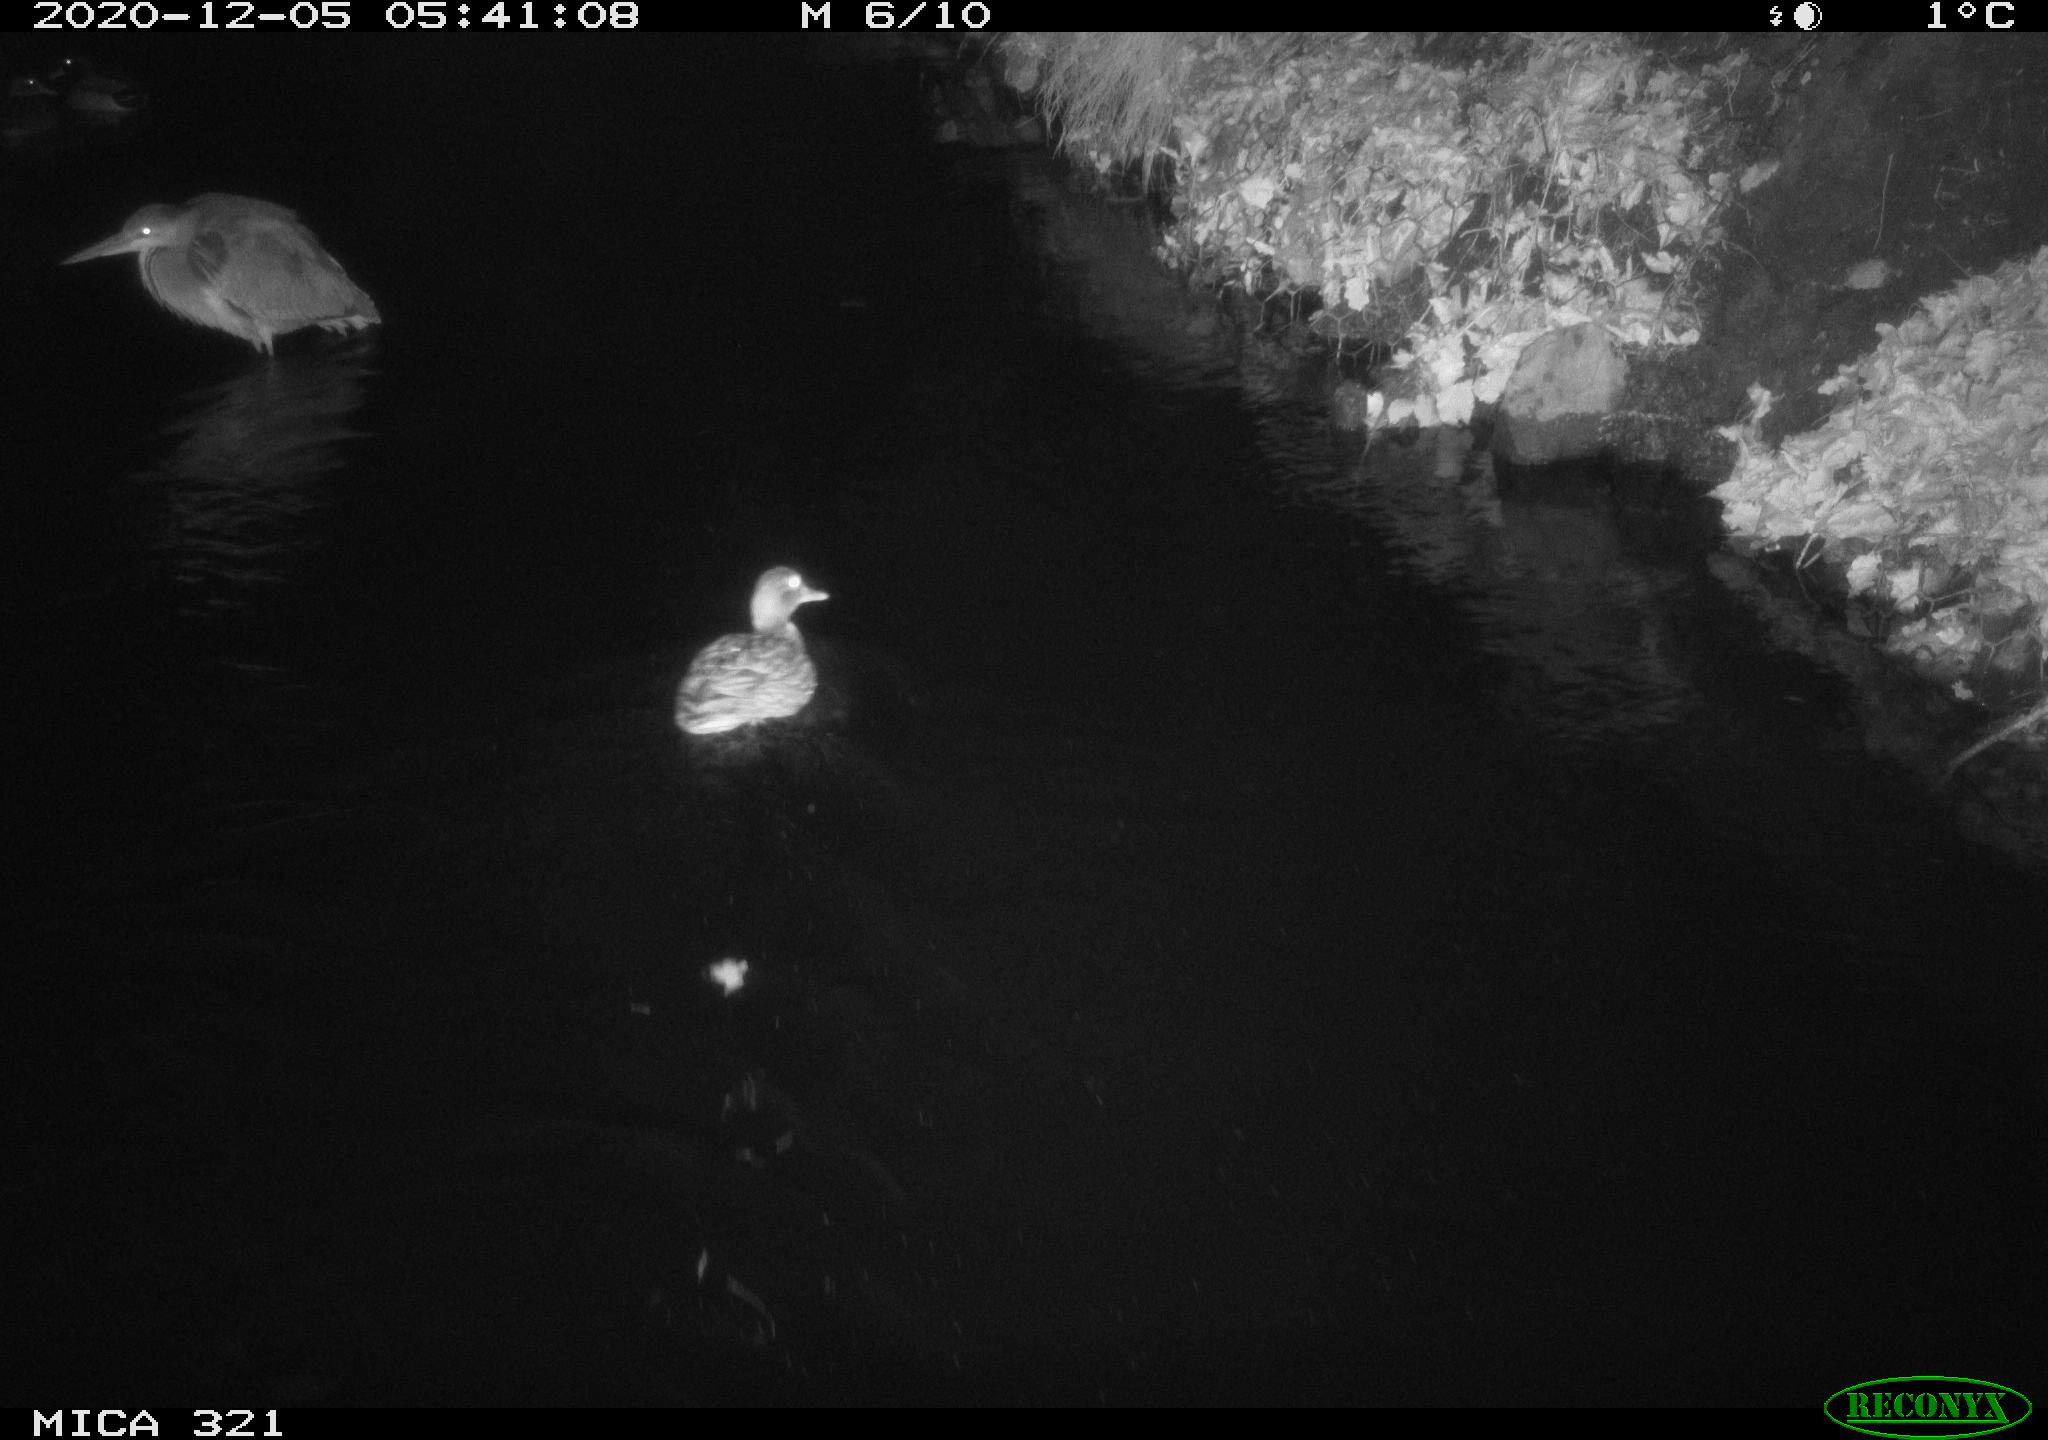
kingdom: Animalia
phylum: Chordata
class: Aves
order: Anseriformes
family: Anatidae
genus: Anas
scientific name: Anas platyrhynchos
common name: Mallard
